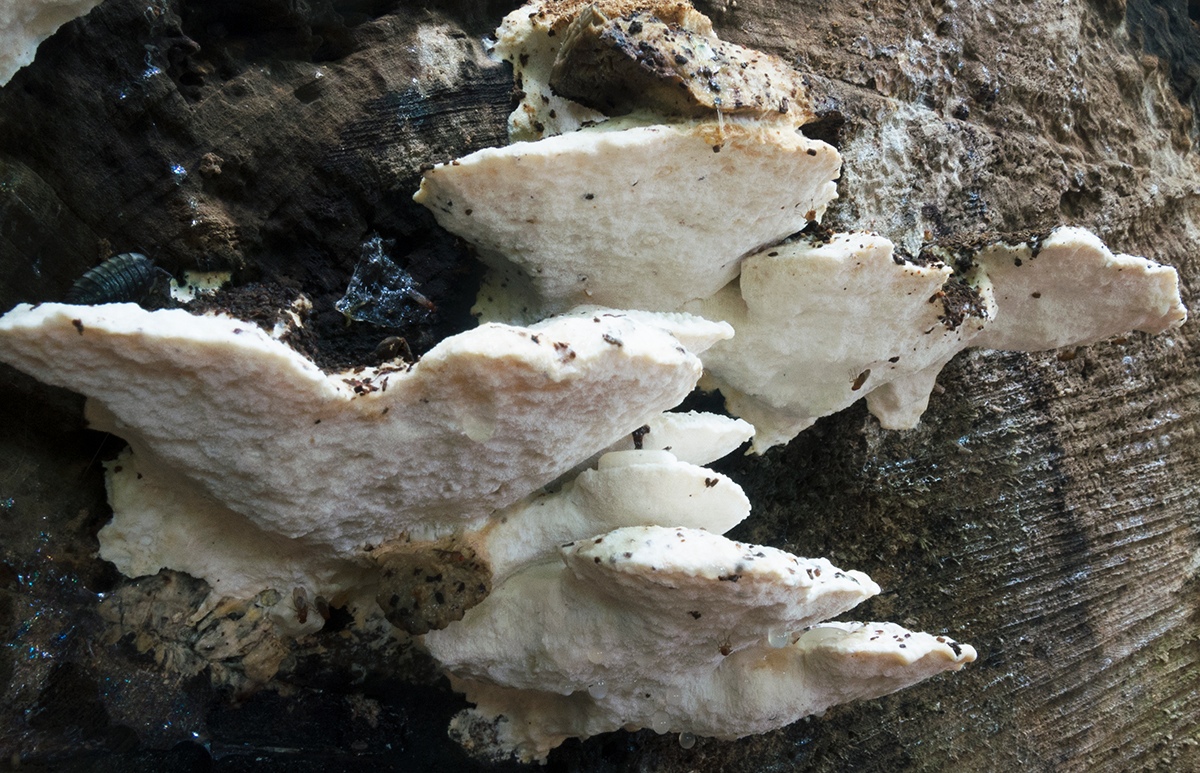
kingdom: Fungi
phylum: Basidiomycota
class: Agaricomycetes
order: Polyporales
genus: Amaropostia
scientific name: Amaropostia stiptica
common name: bitter kødporesvamp
